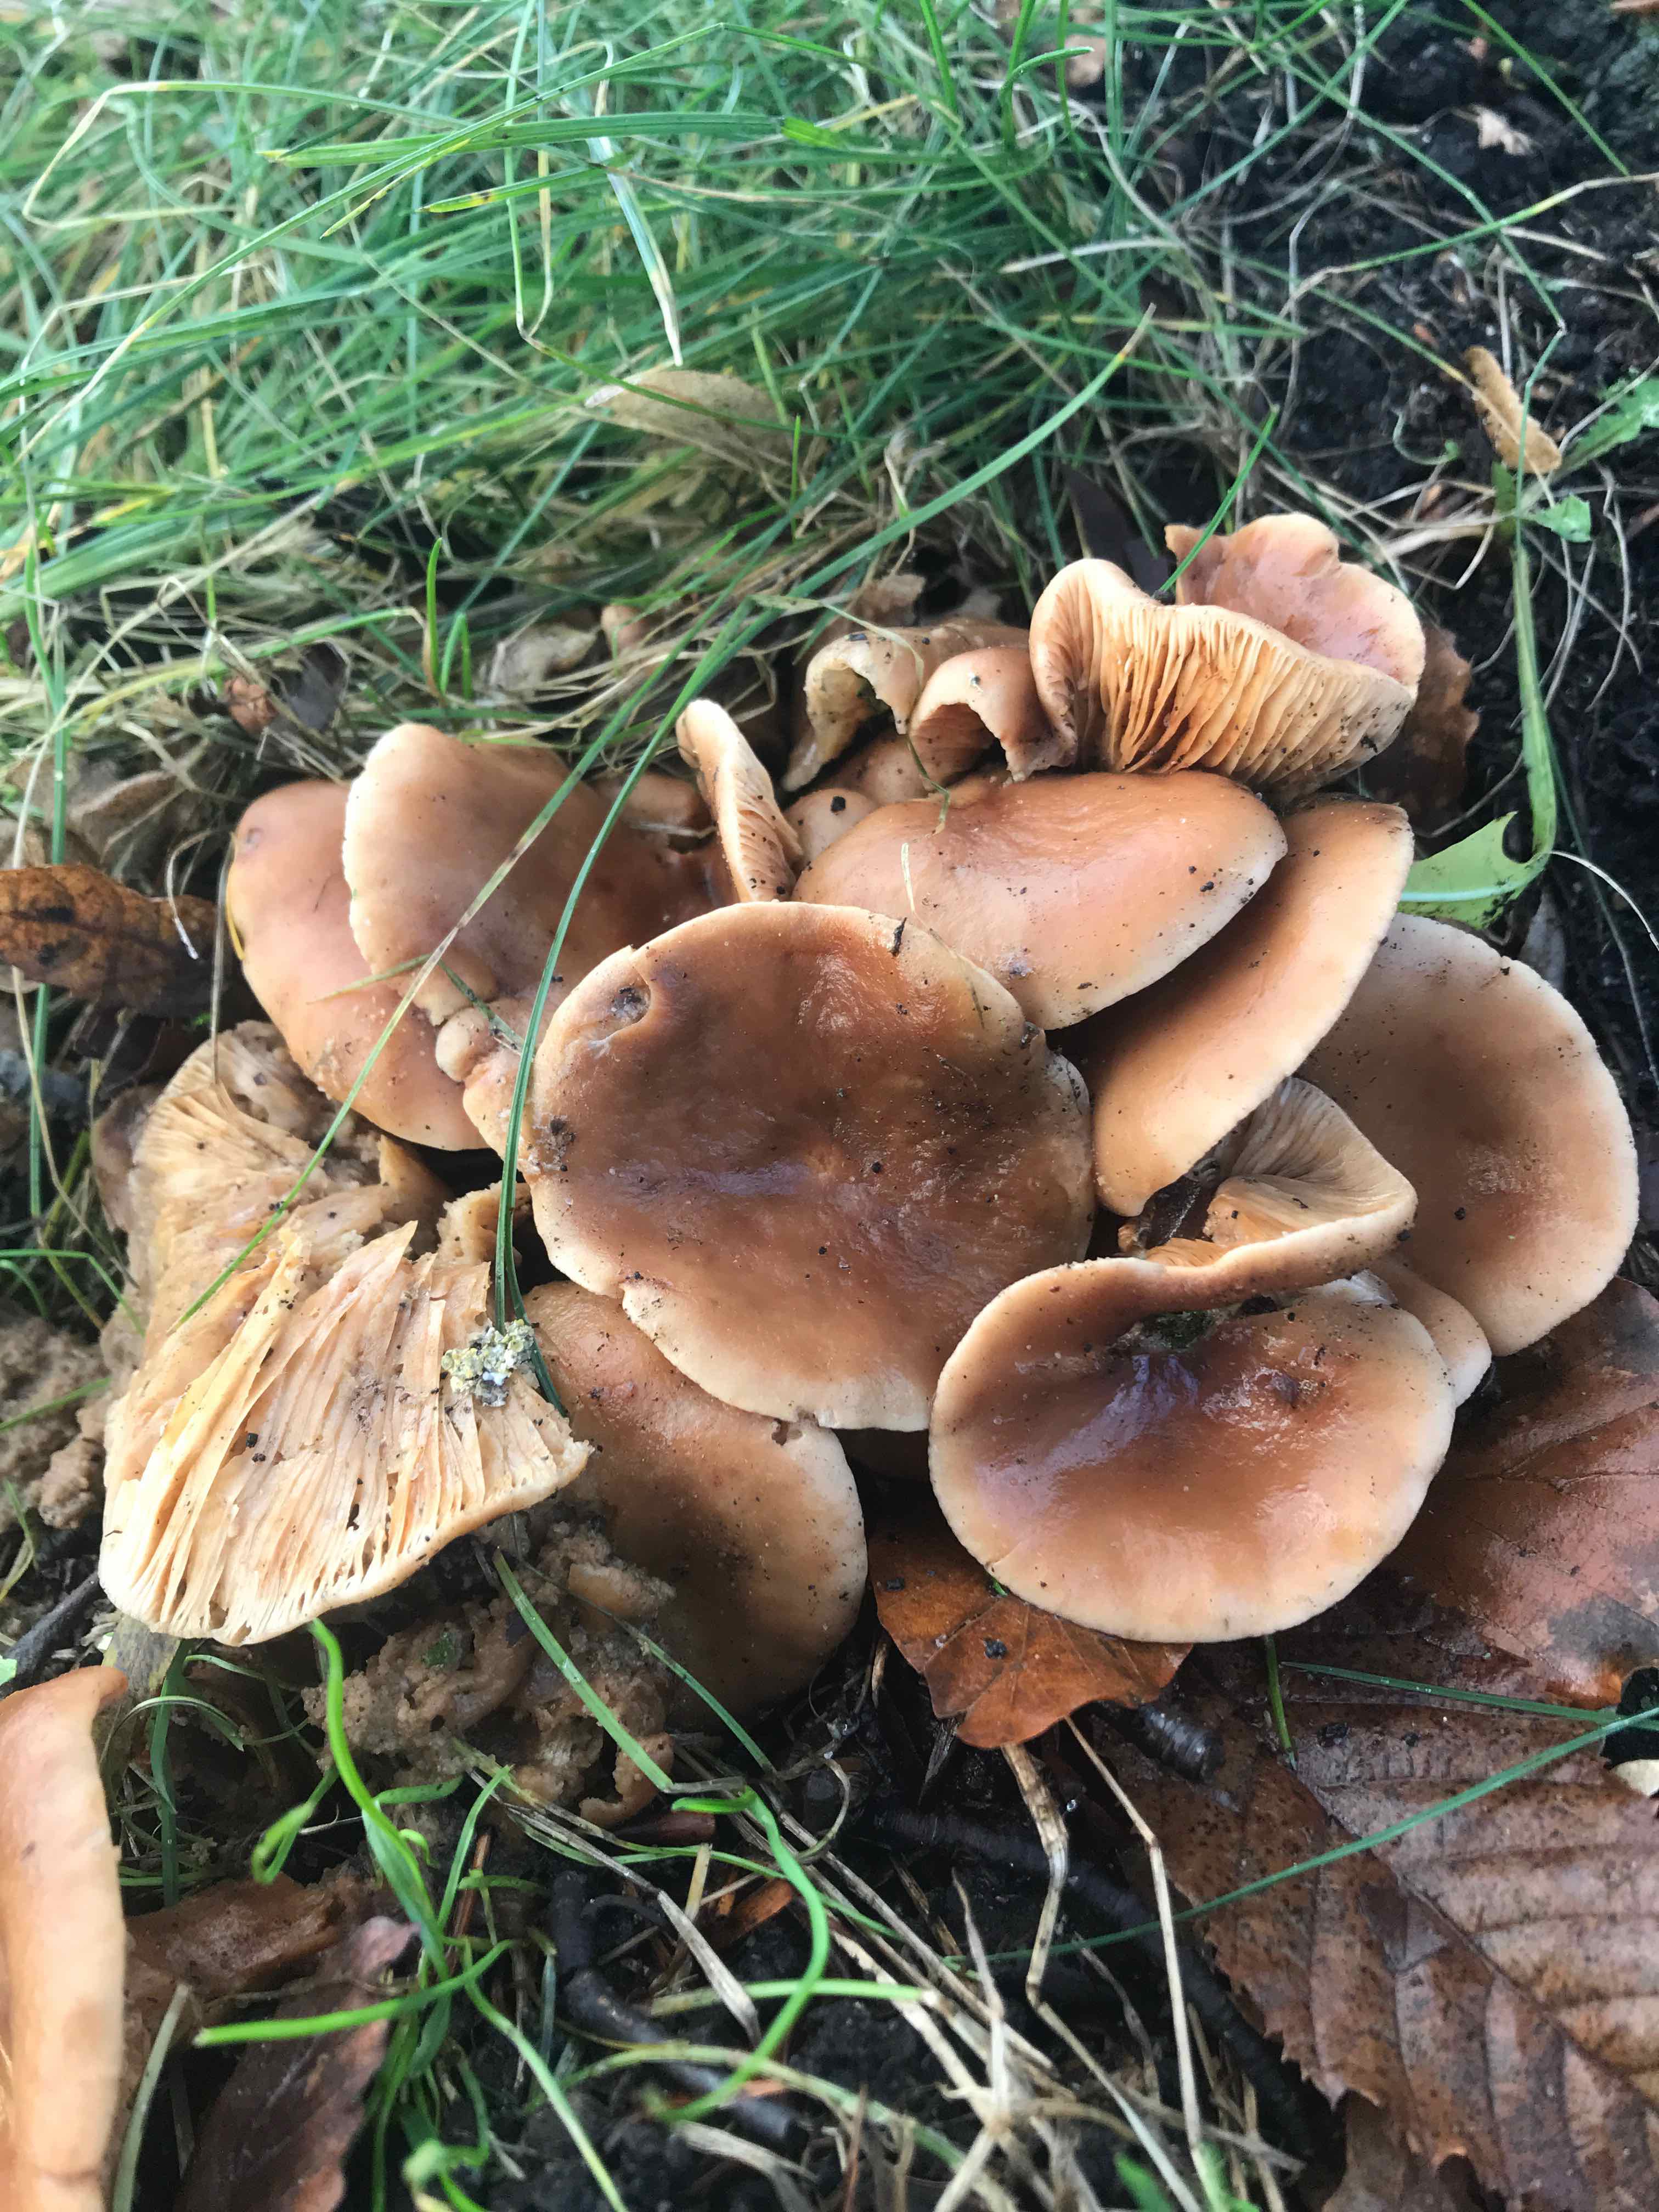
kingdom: Fungi
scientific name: Fungi
